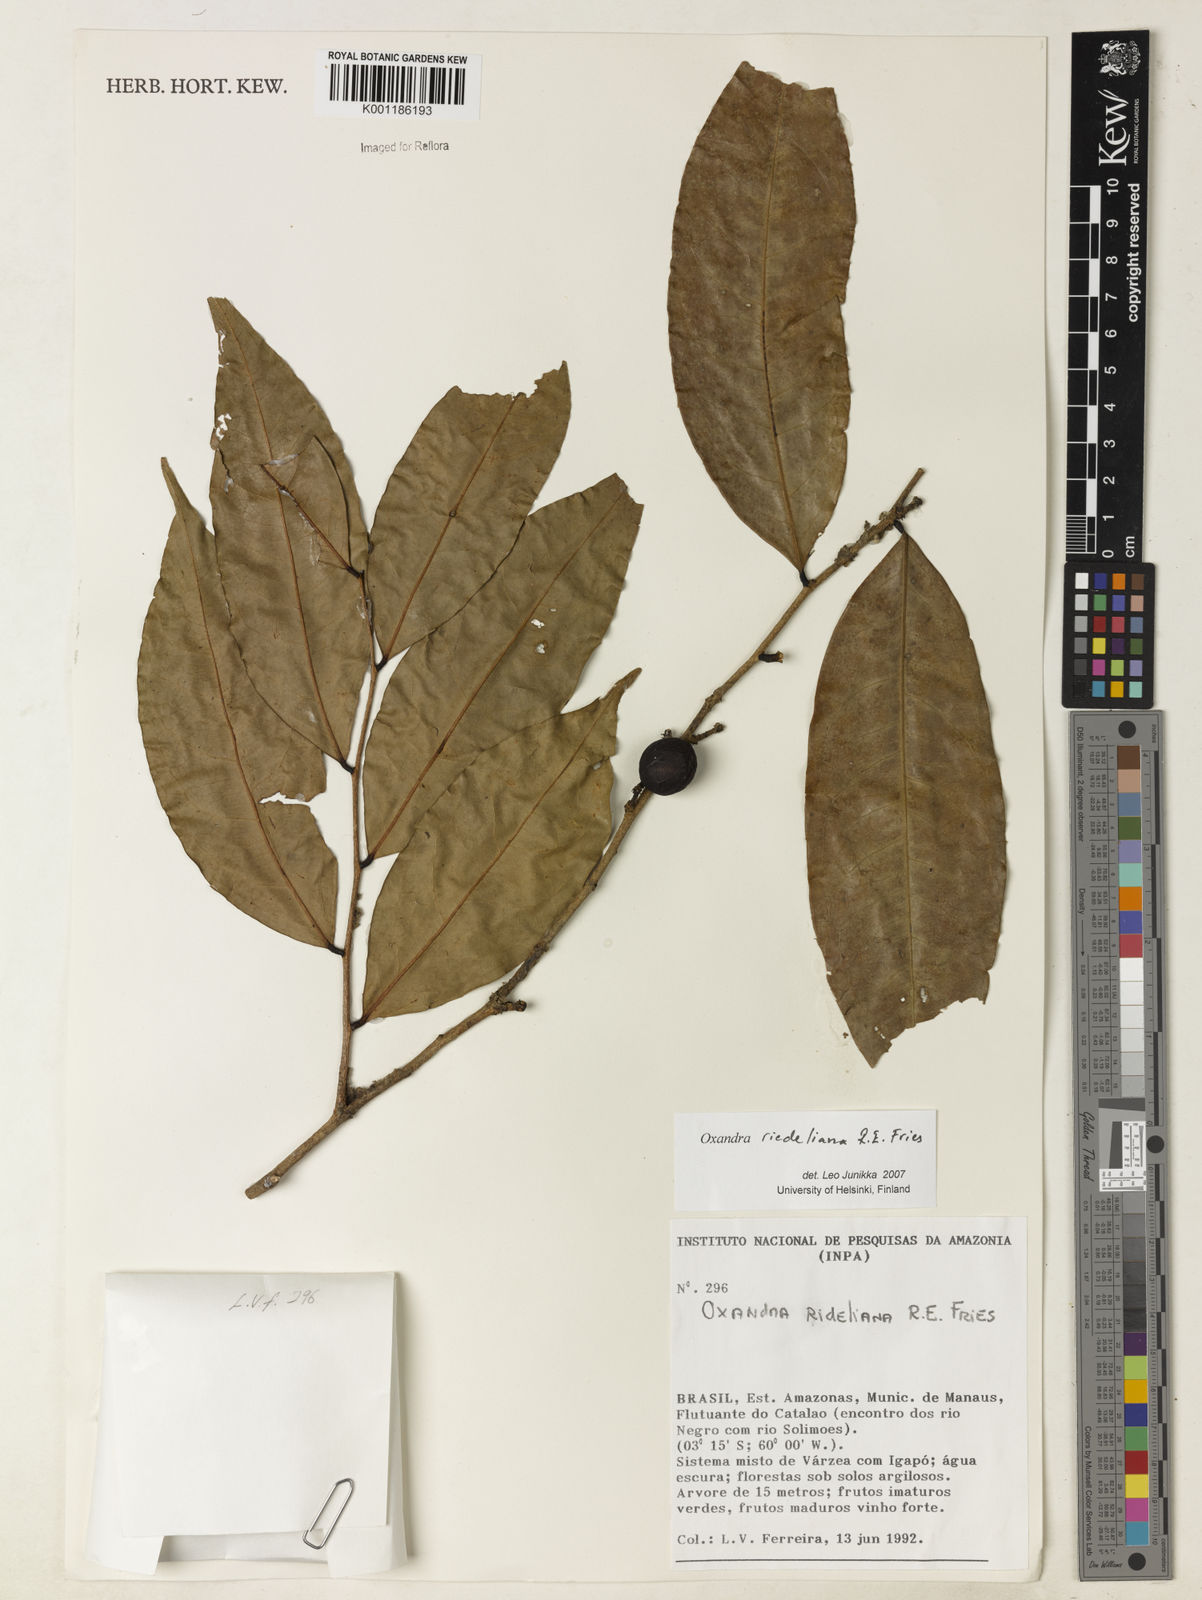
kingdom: Plantae
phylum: Tracheophyta
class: Magnoliopsida
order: Magnoliales
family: Annonaceae
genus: Oxandra
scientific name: Oxandra riedeliana
